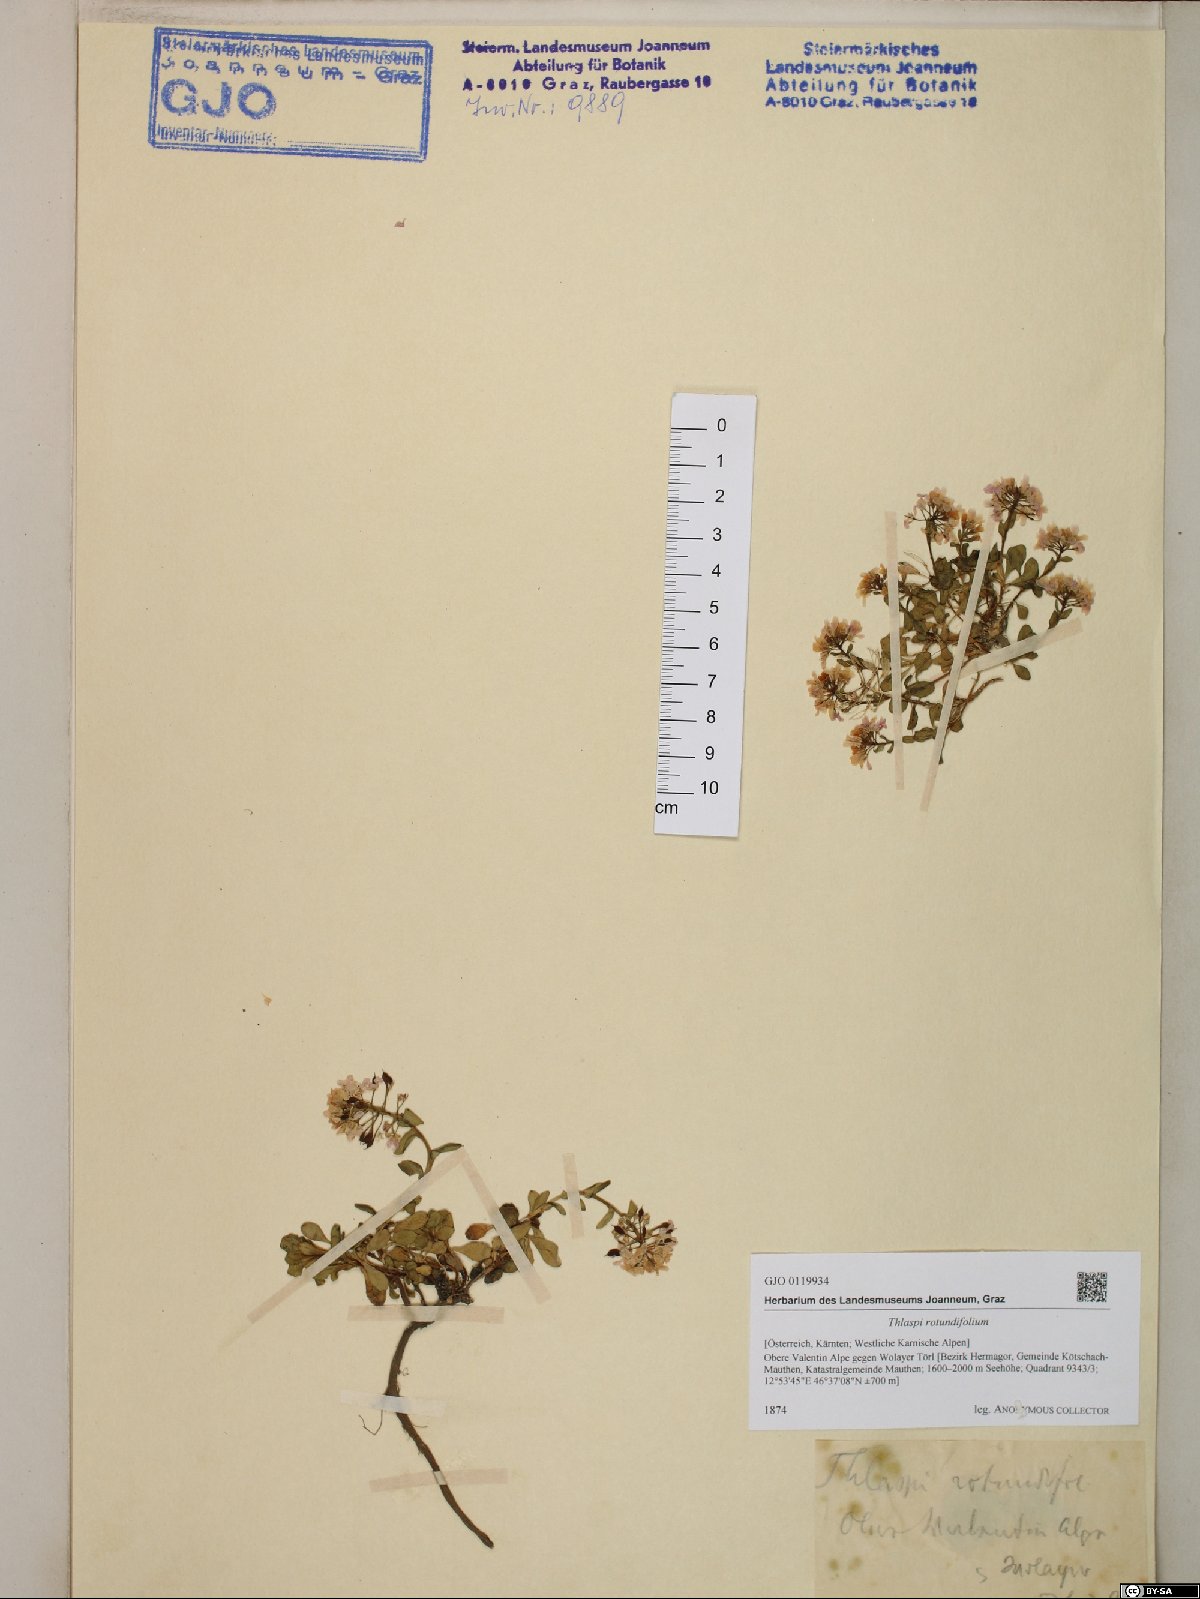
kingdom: Plantae
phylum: Tracheophyta
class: Magnoliopsida
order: Brassicales
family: Brassicaceae
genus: Noccaea
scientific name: Noccaea rotundifolia
